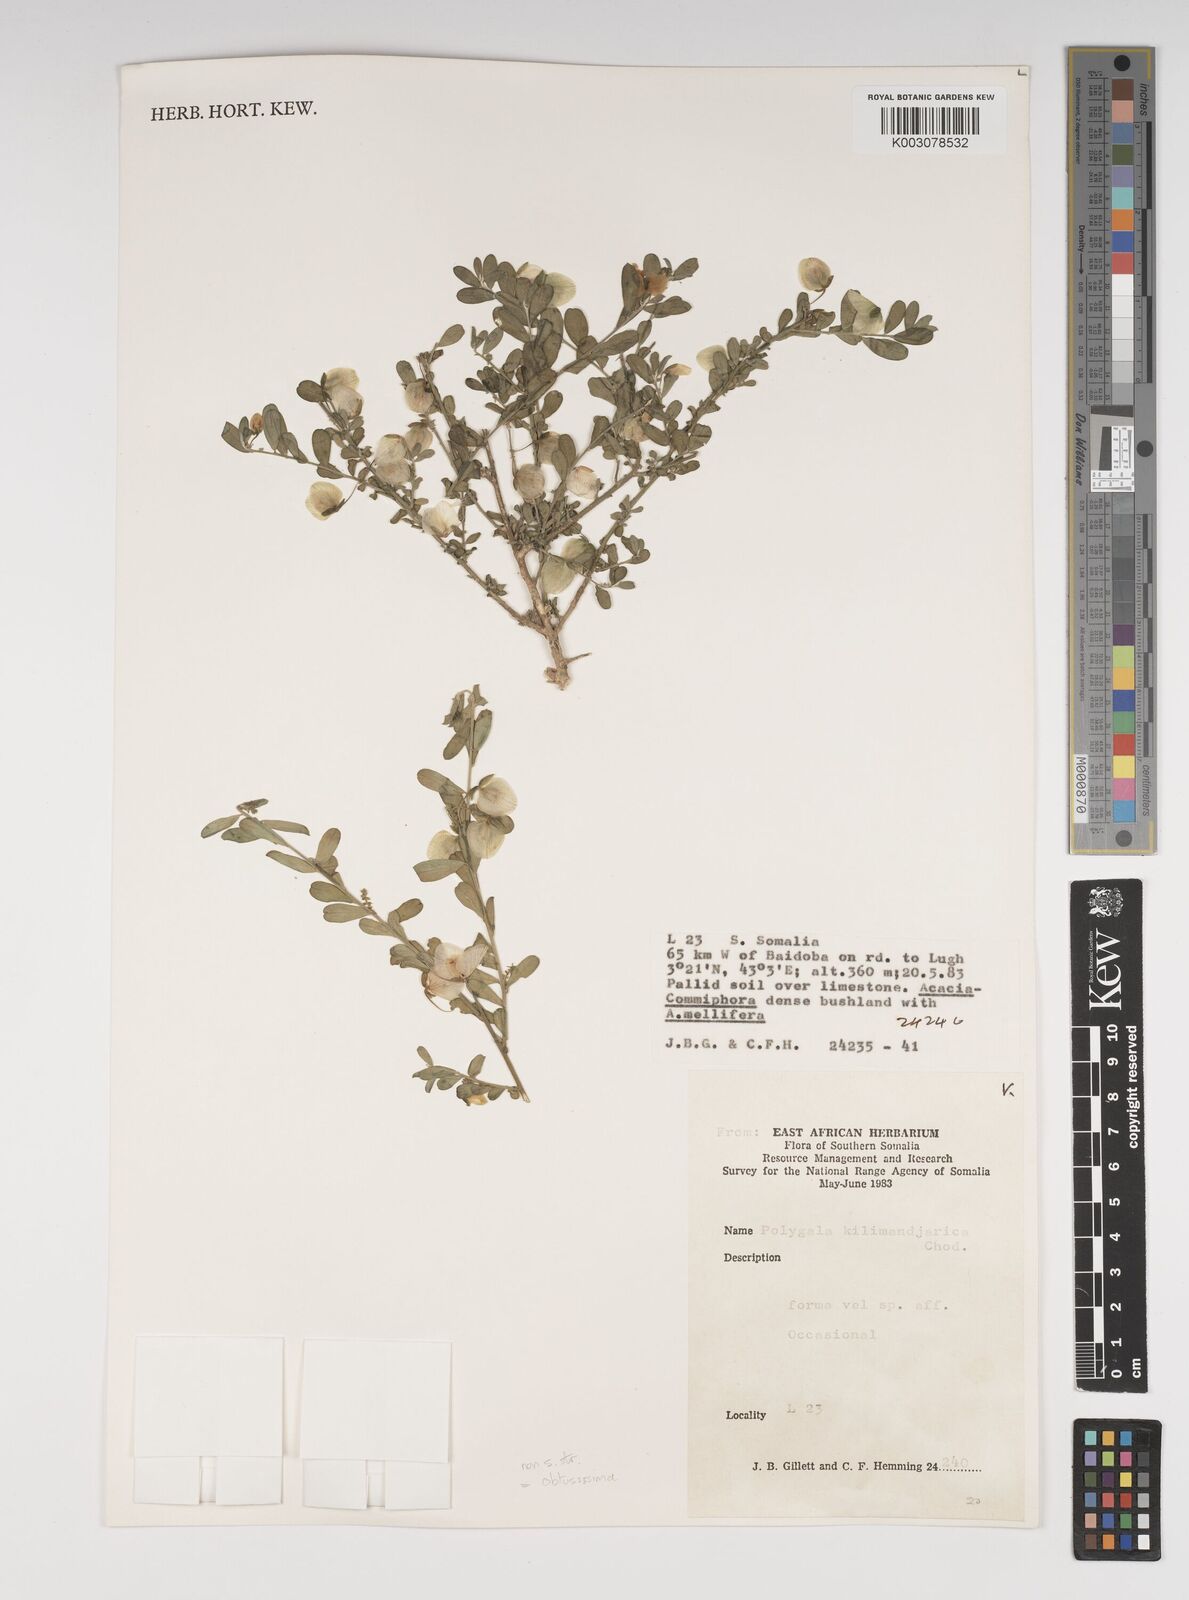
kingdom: Plantae
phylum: Tracheophyta
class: Magnoliopsida
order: Fabales
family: Polygalaceae
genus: Polygala
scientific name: Polygala senensis
